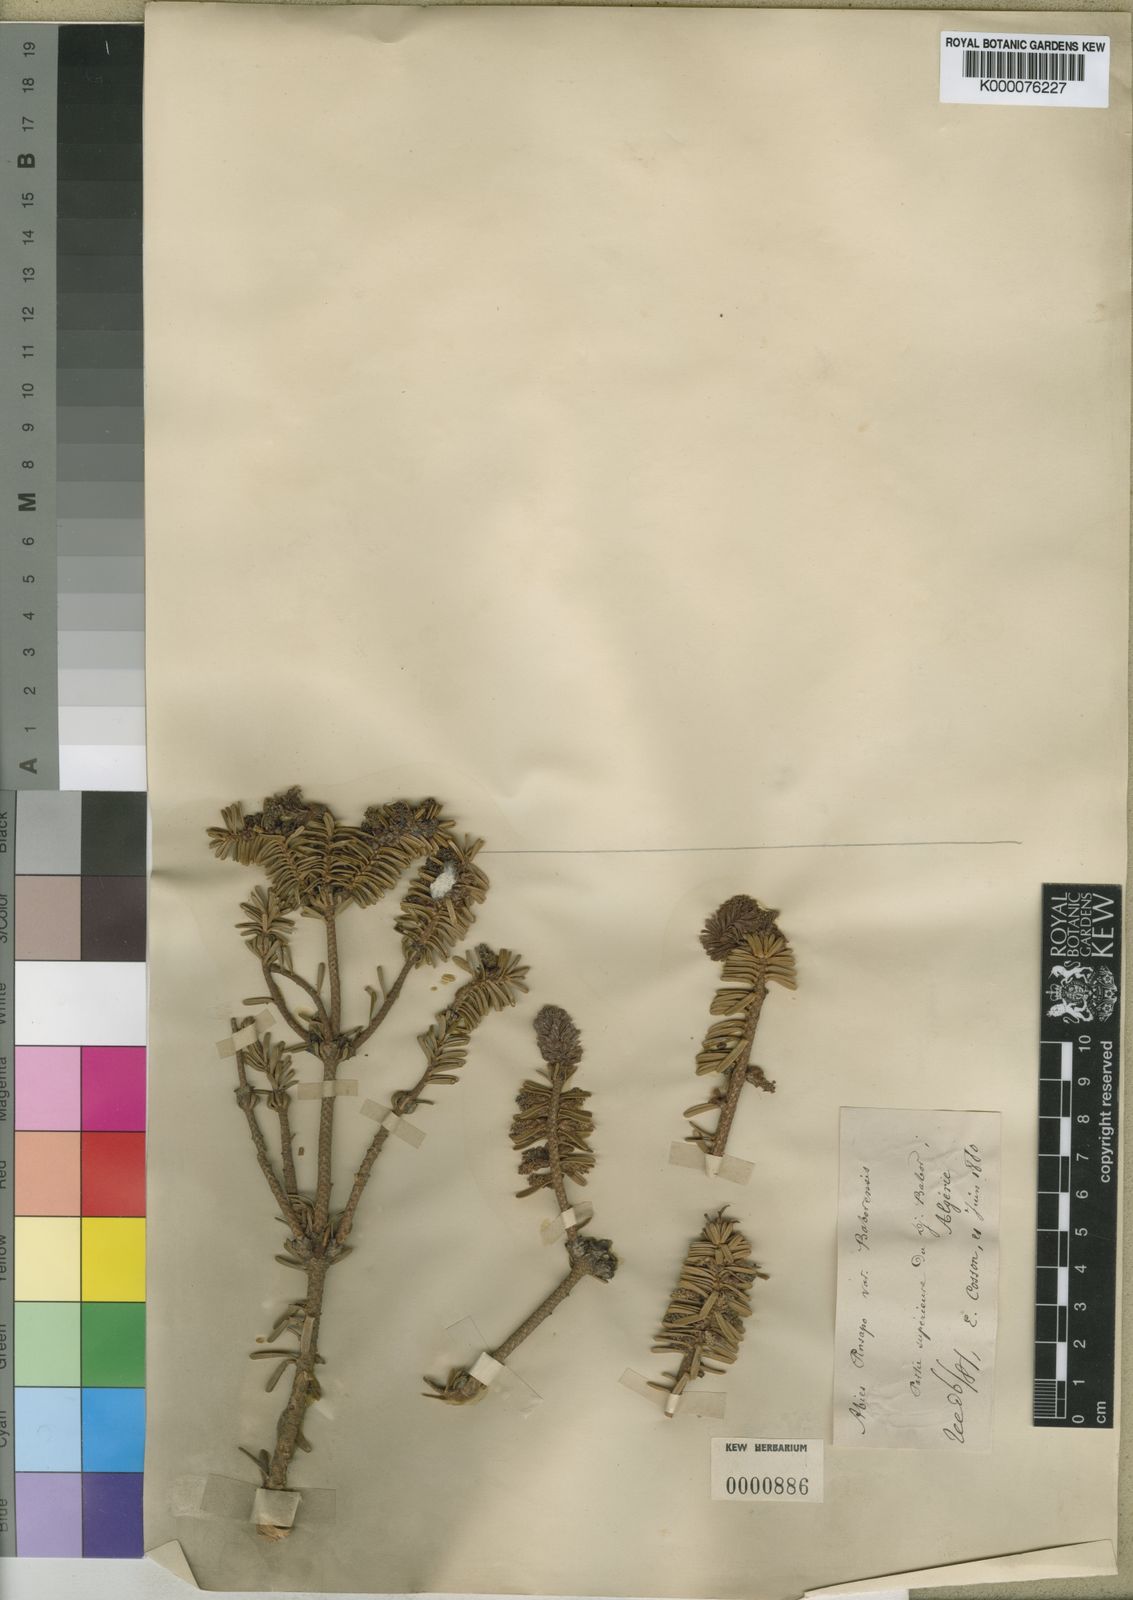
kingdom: Plantae
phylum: Tracheophyta
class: Pinopsida
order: Pinales
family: Pinaceae
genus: Abies
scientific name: Abies
